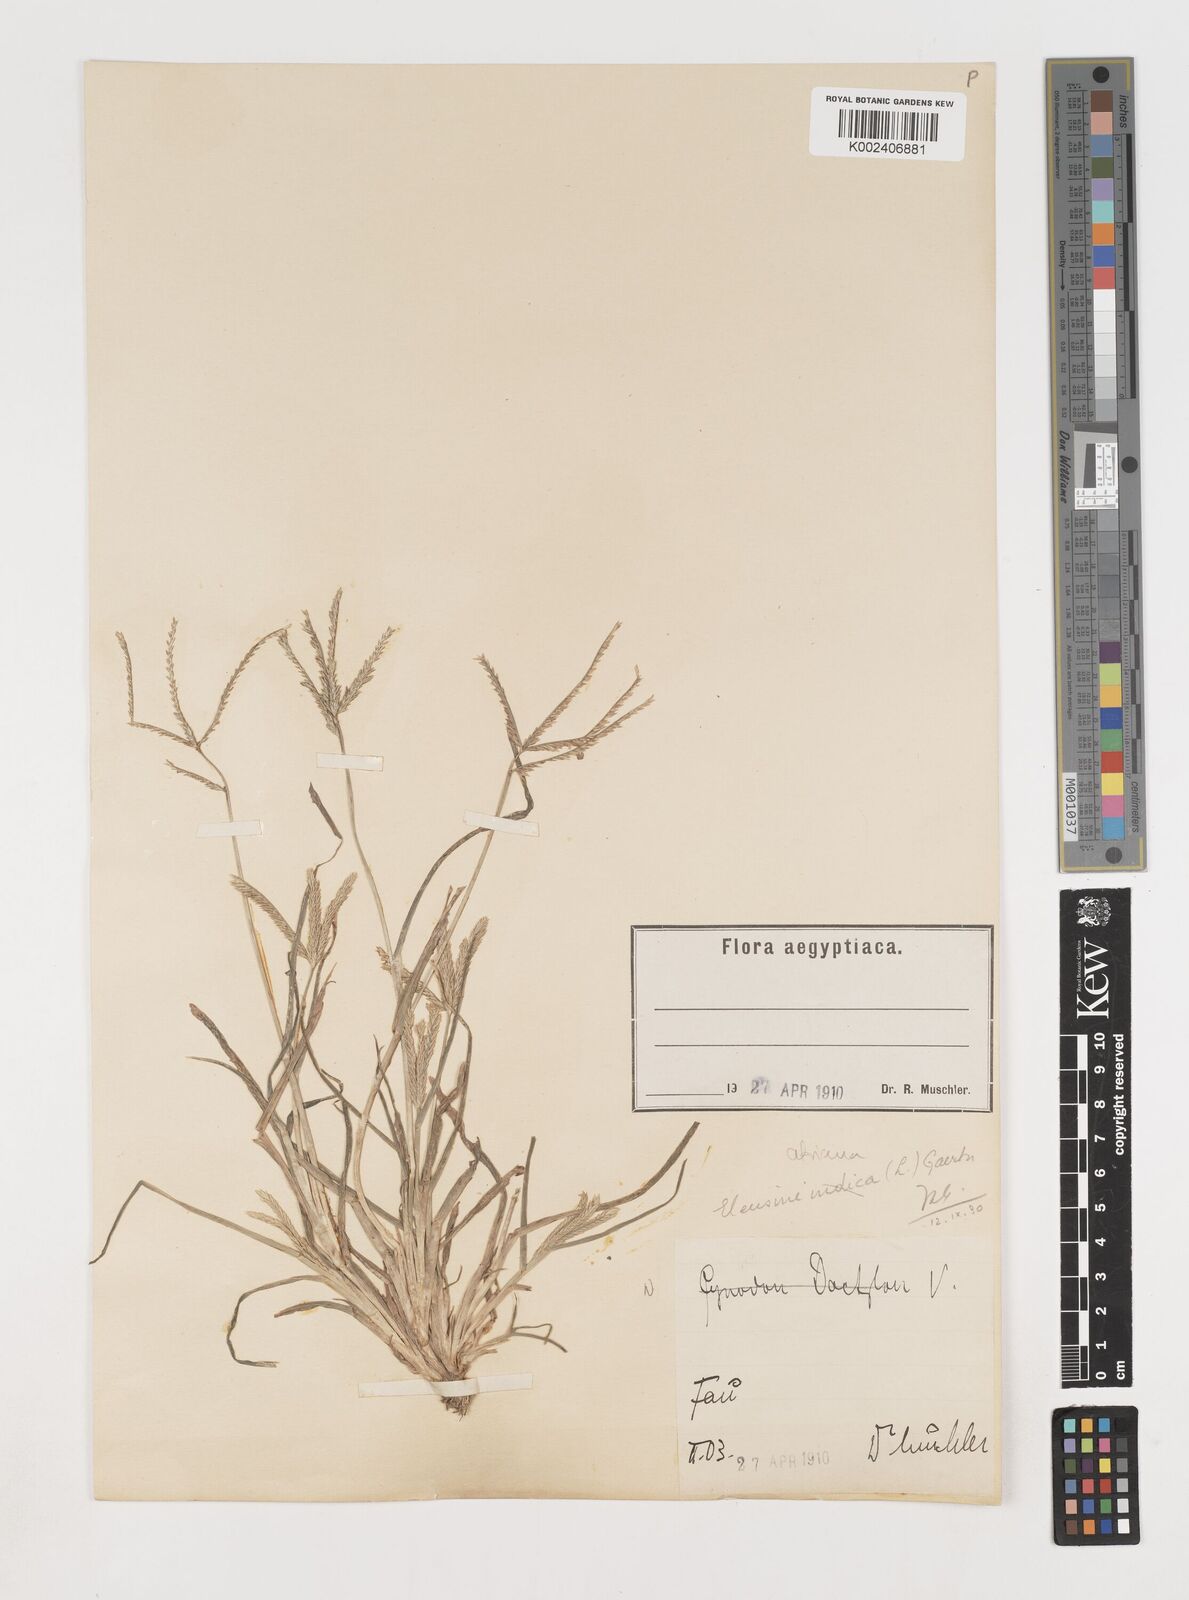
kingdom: Plantae
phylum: Tracheophyta
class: Liliopsida
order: Poales
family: Poaceae
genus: Eleusine
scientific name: Eleusine africana
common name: Wild african finger millet
